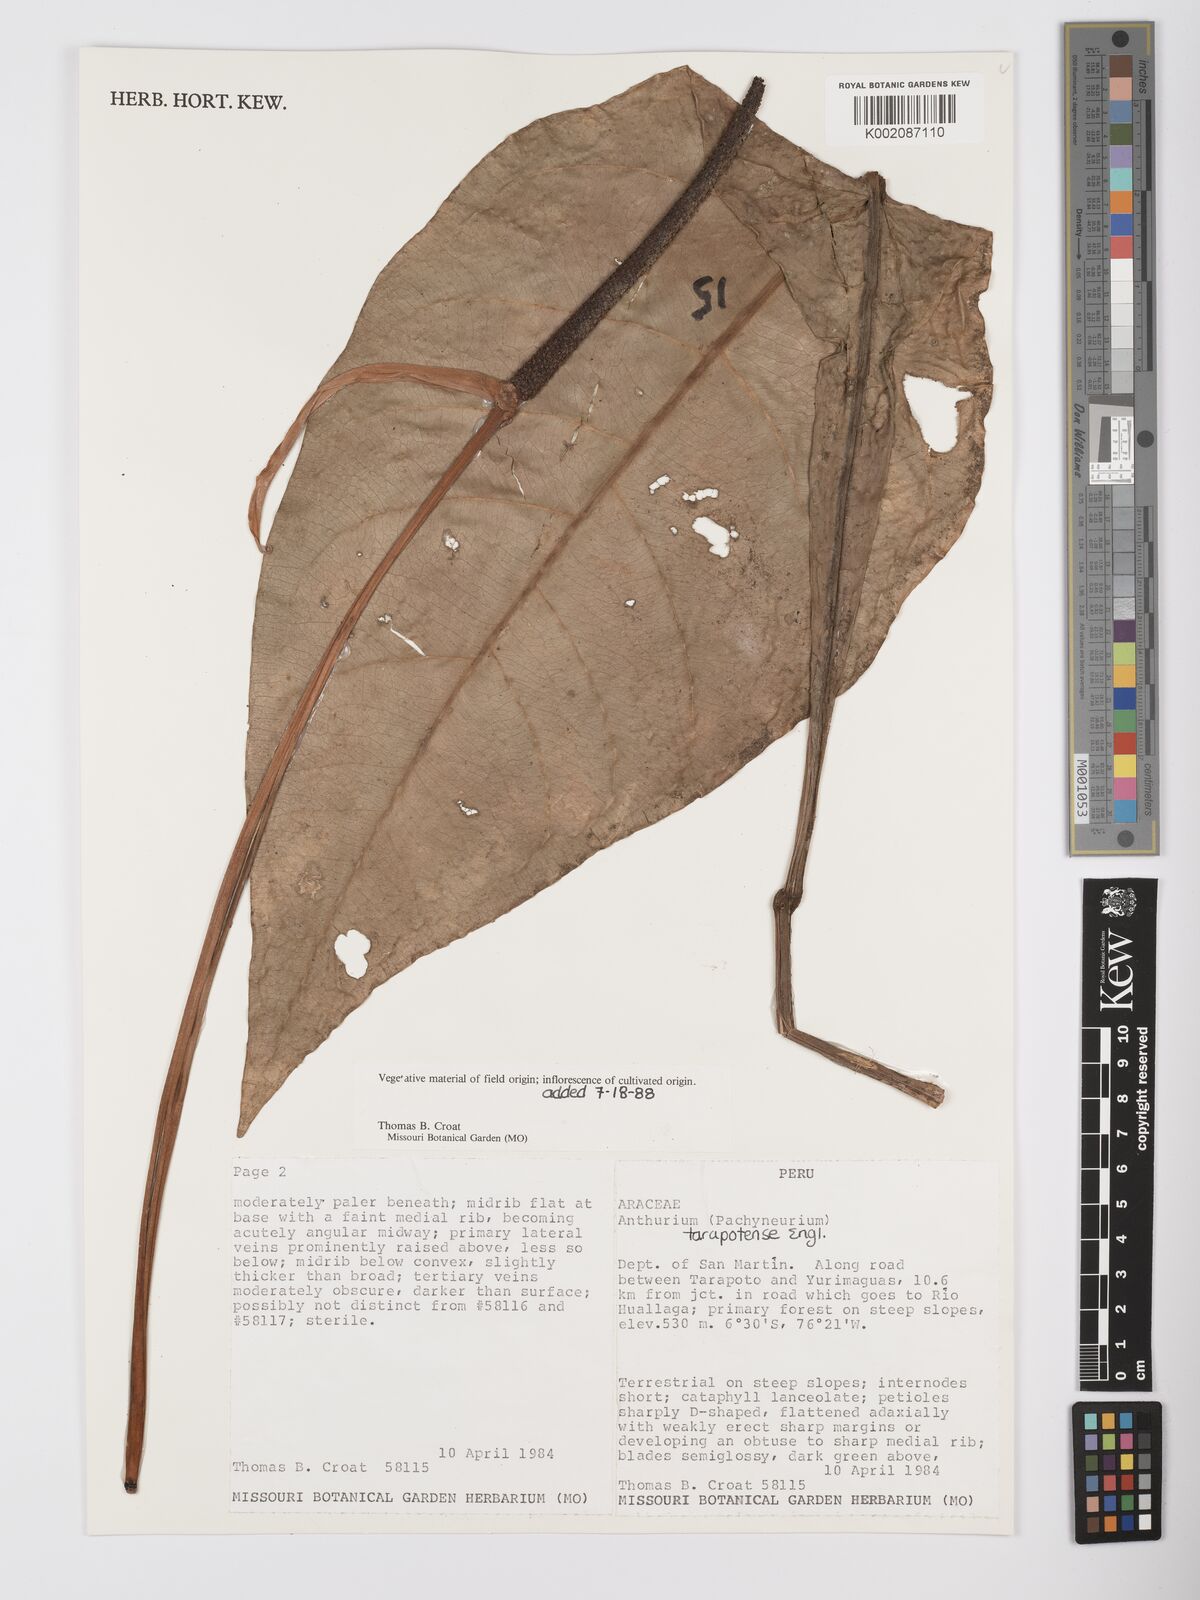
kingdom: Plantae
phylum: Tracheophyta
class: Liliopsida
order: Alismatales
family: Araceae
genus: Anthurium
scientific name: Anthurium tarapotense
